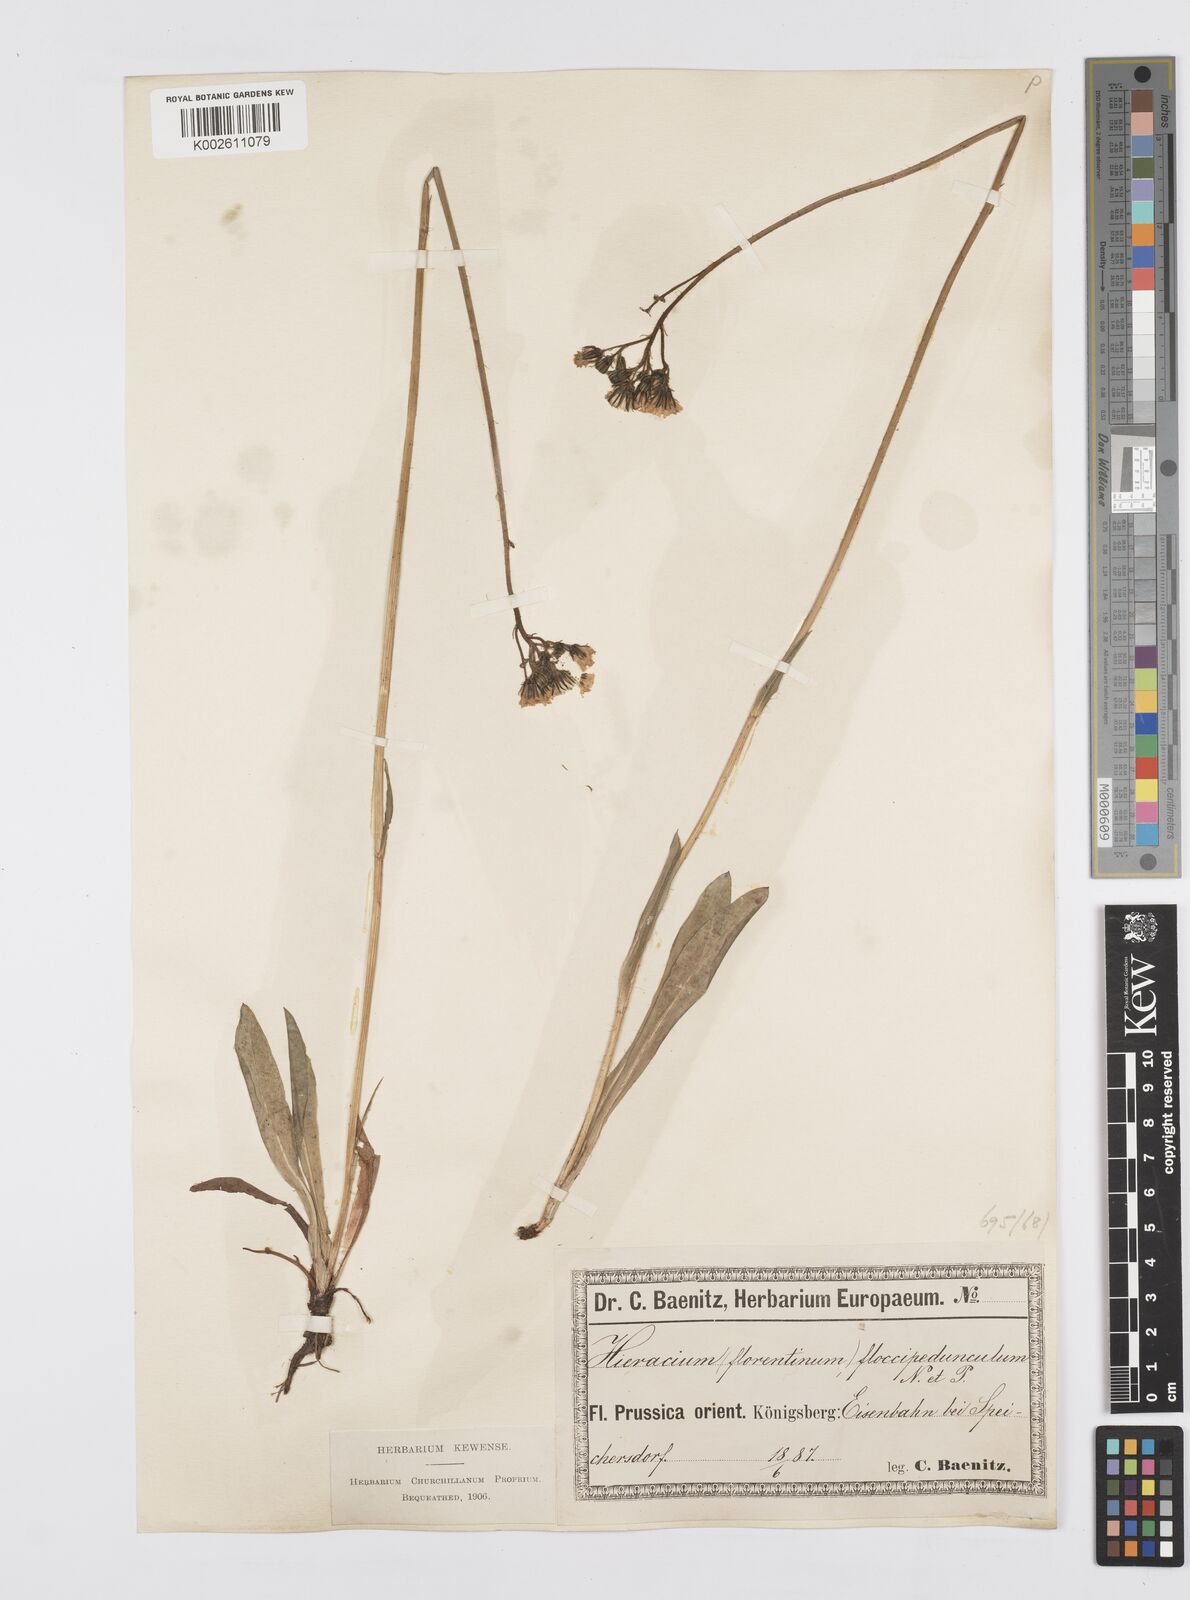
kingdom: Plantae
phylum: Tracheophyta
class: Magnoliopsida
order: Asterales
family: Asteraceae
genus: Pilosella
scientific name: Pilosella piloselloides
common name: Glaucous king-devil
